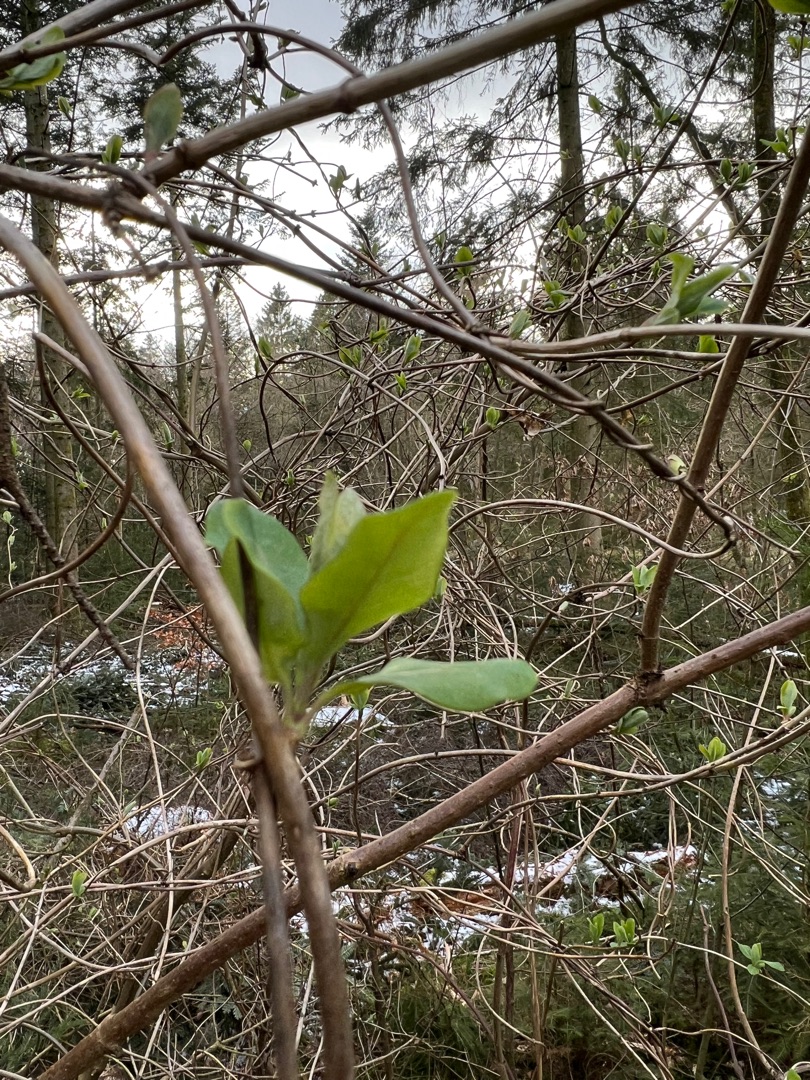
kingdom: Plantae
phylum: Tracheophyta
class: Magnoliopsida
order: Dipsacales
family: Caprifoliaceae
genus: Lonicera
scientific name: Lonicera periclymenum
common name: Almindelig gedeblad
